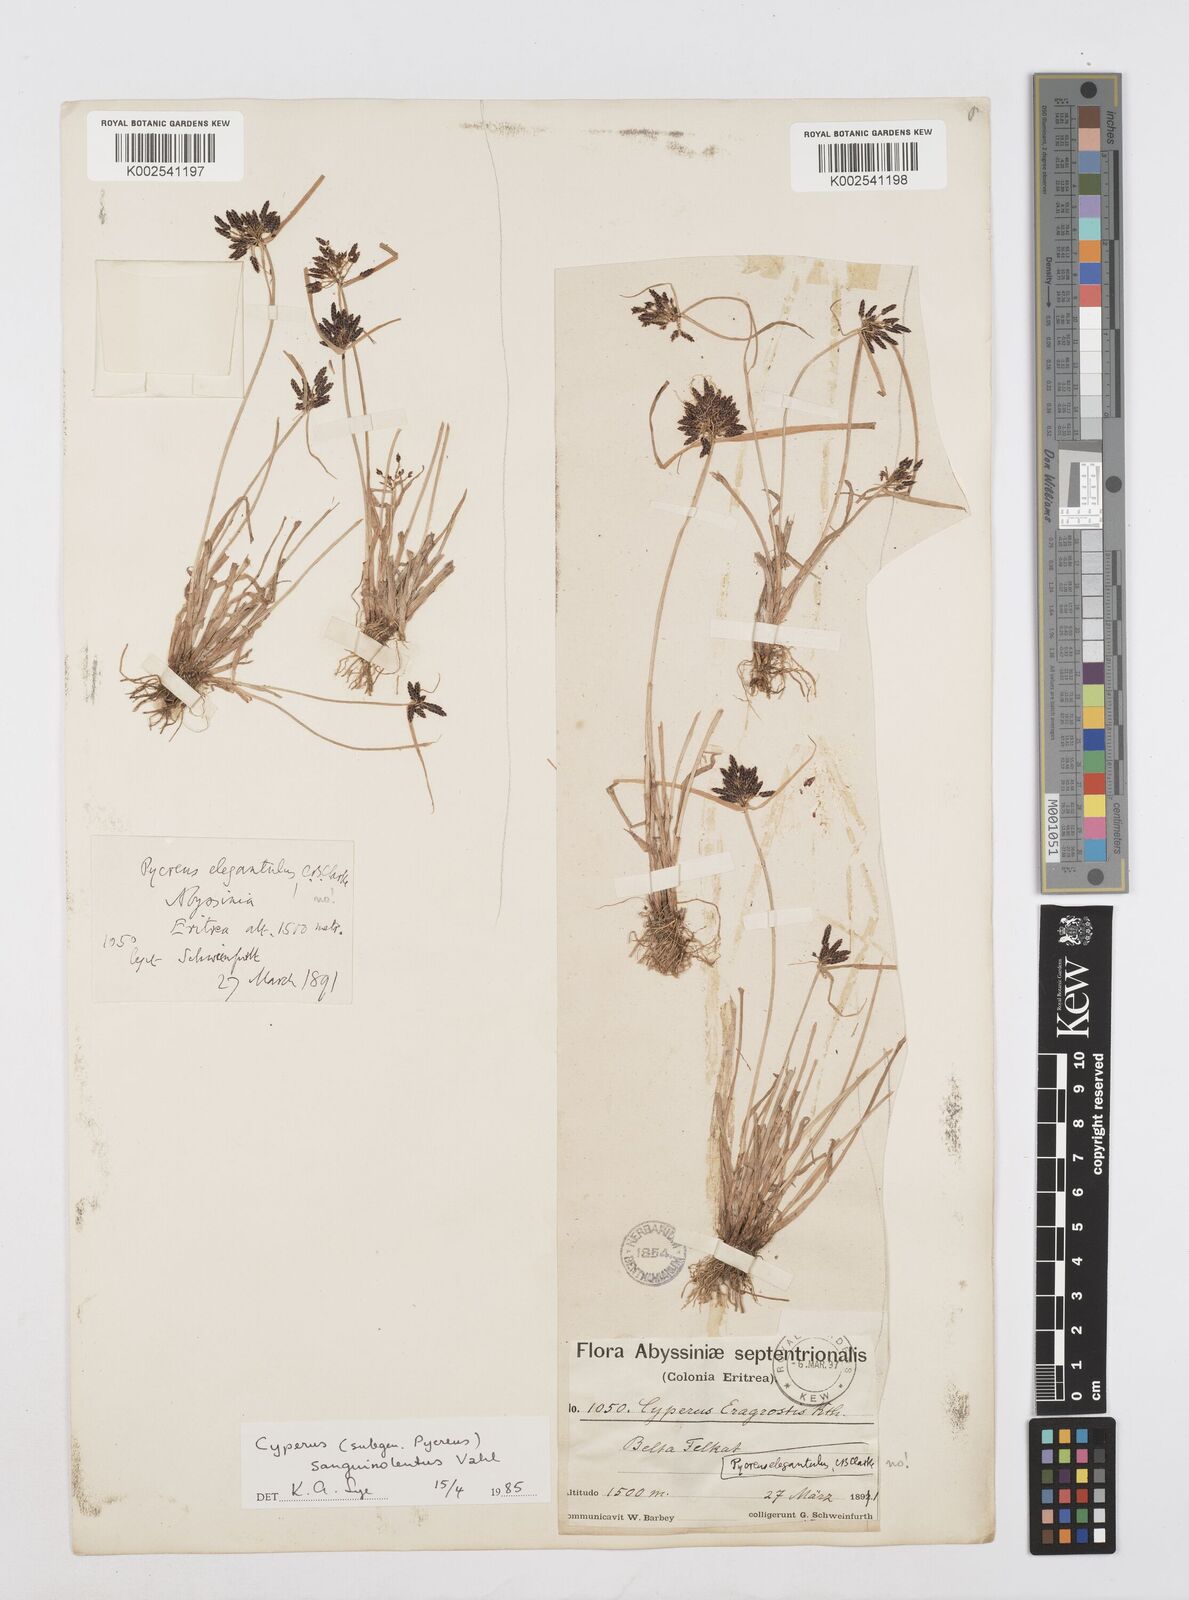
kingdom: Plantae
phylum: Tracheophyta
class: Liliopsida
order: Poales
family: Cyperaceae
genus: Cyperus
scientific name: Cyperus sanguinolentus
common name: Purpleglume flatsedge
